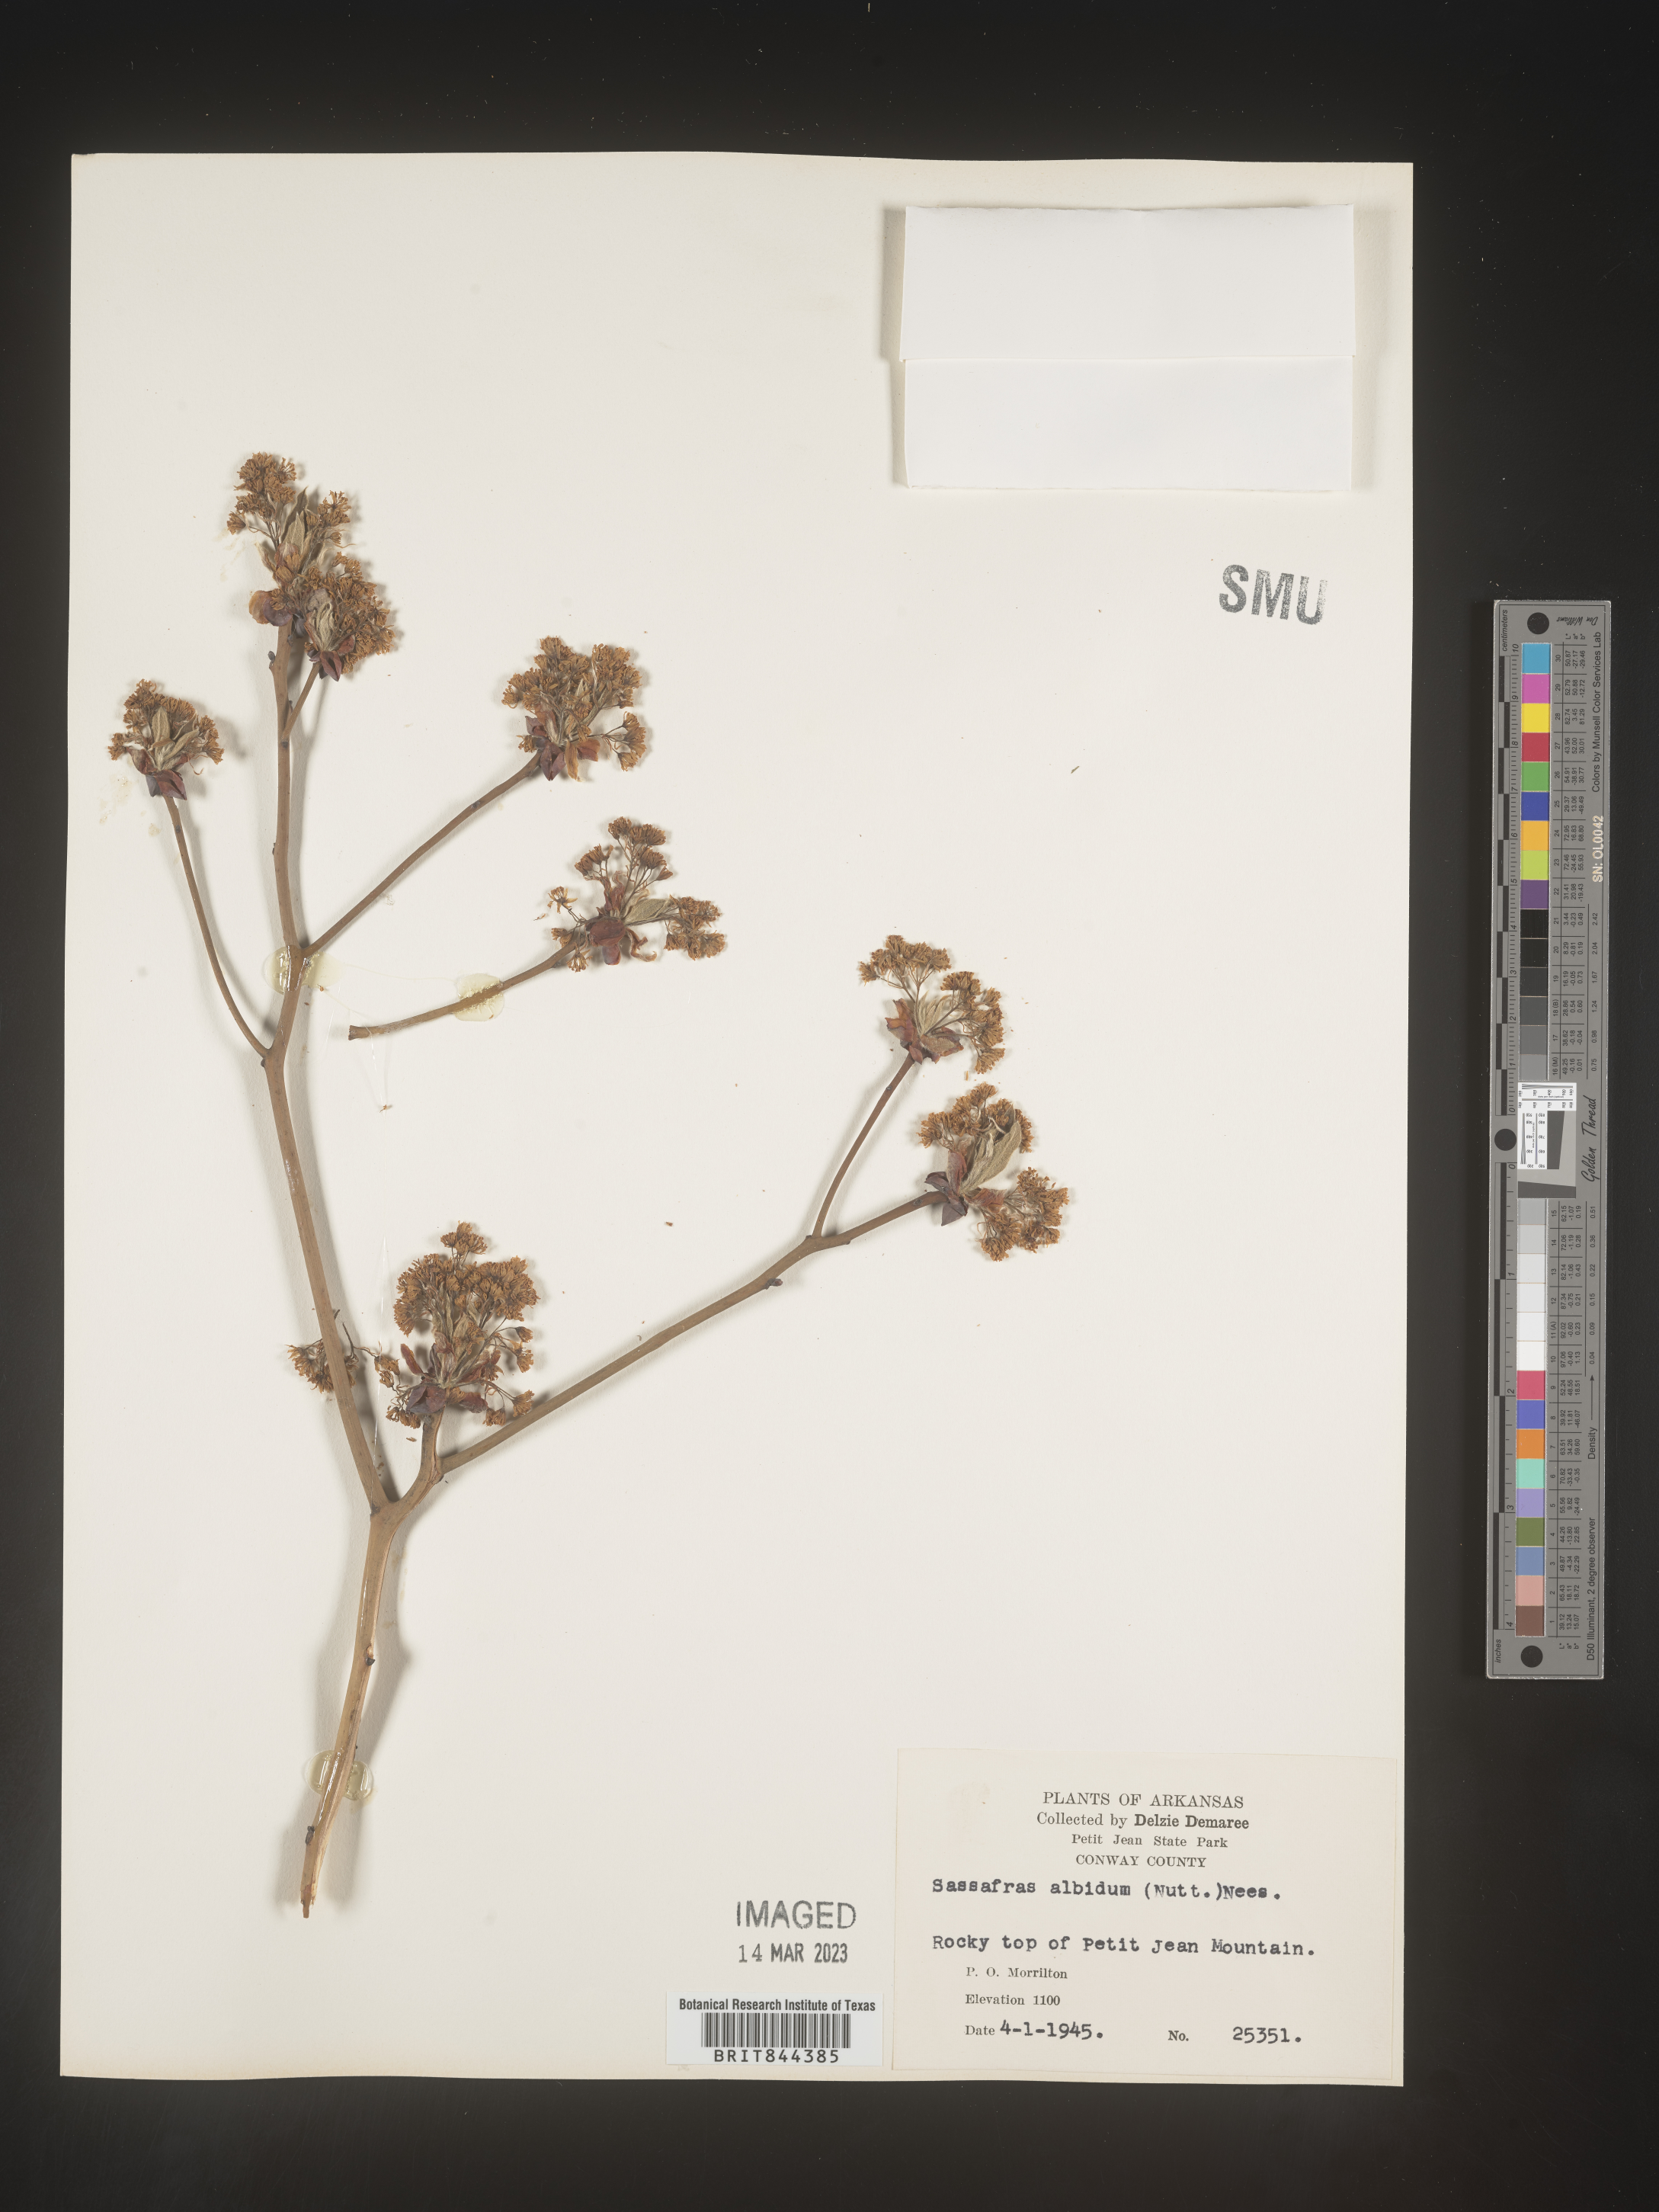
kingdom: Plantae
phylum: Tracheophyta
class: Magnoliopsida
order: Laurales
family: Lauraceae
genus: Sassafras
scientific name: Sassafras
